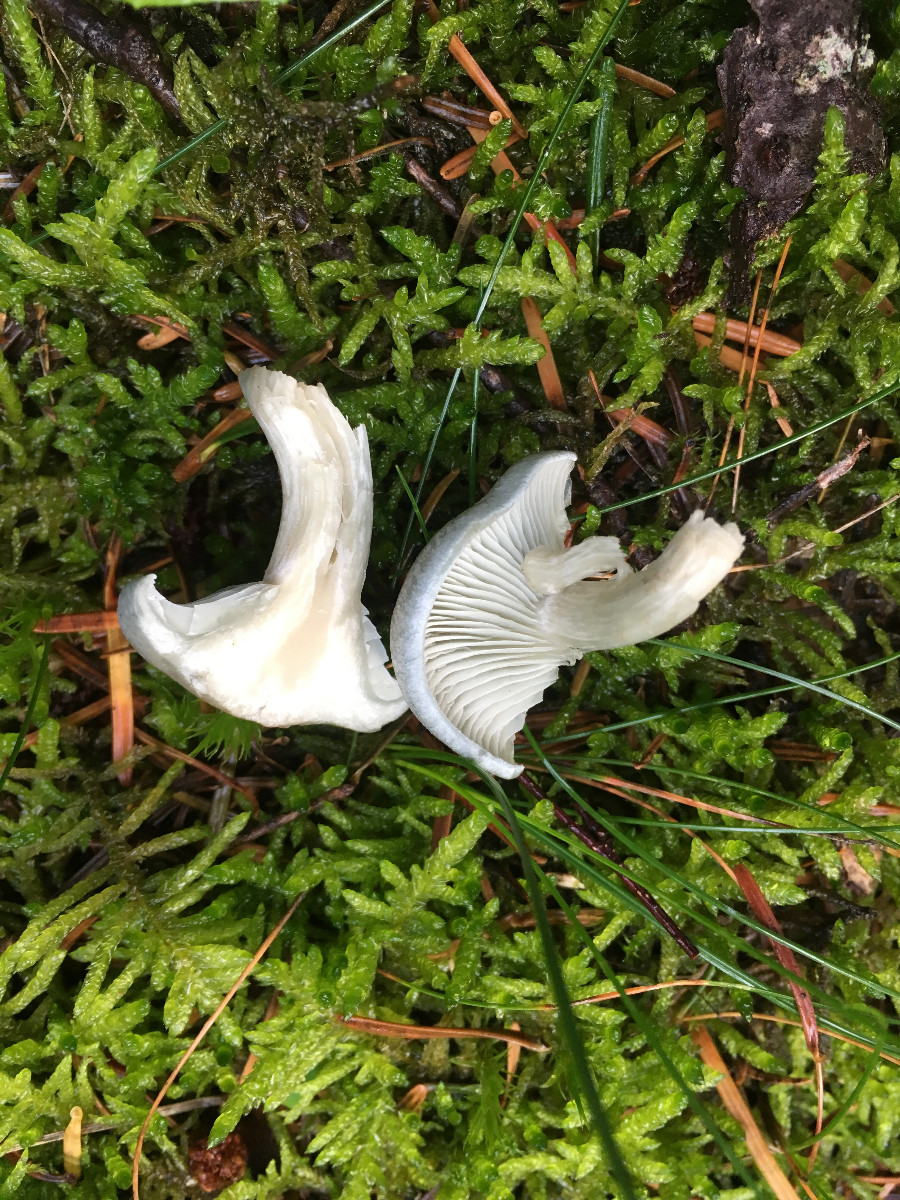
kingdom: Fungi
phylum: Basidiomycota
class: Agaricomycetes
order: Agaricales
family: Tricholomataceae
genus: Clitocybe
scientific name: Clitocybe odora
